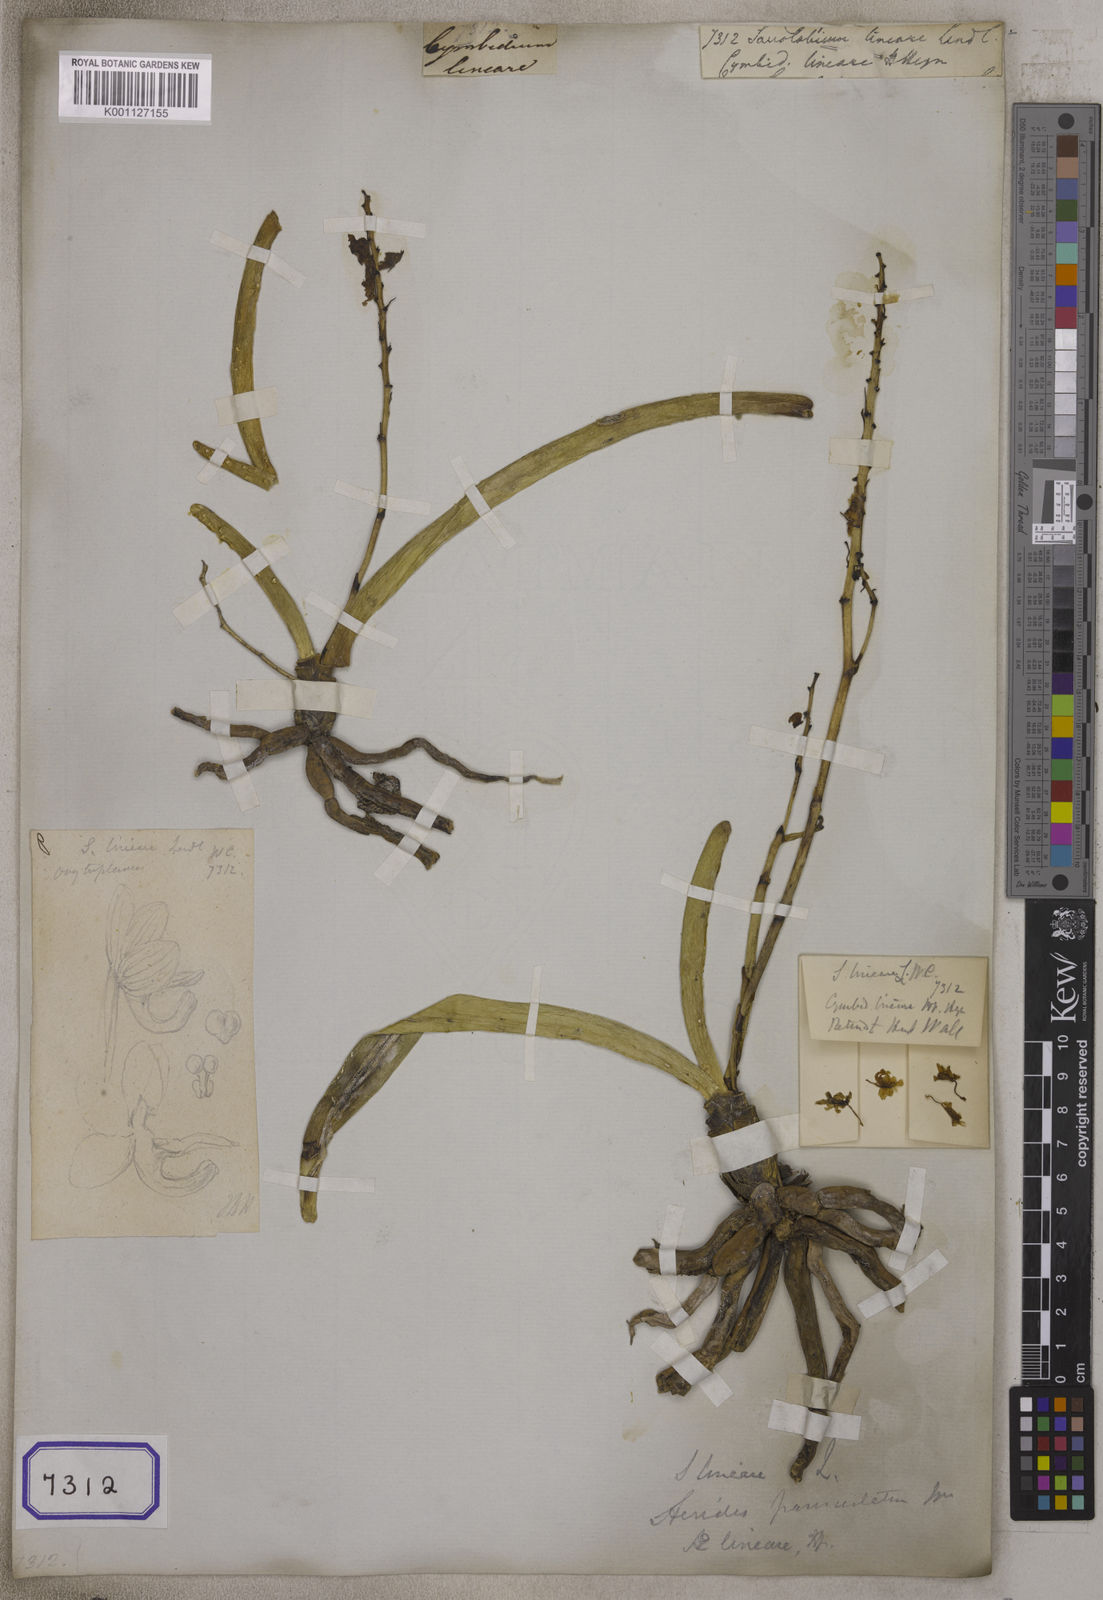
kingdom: Plantae
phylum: Tracheophyta
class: Liliopsida
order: Asparagales
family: Orchidaceae
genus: Saccolabium
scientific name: Saccolabium
